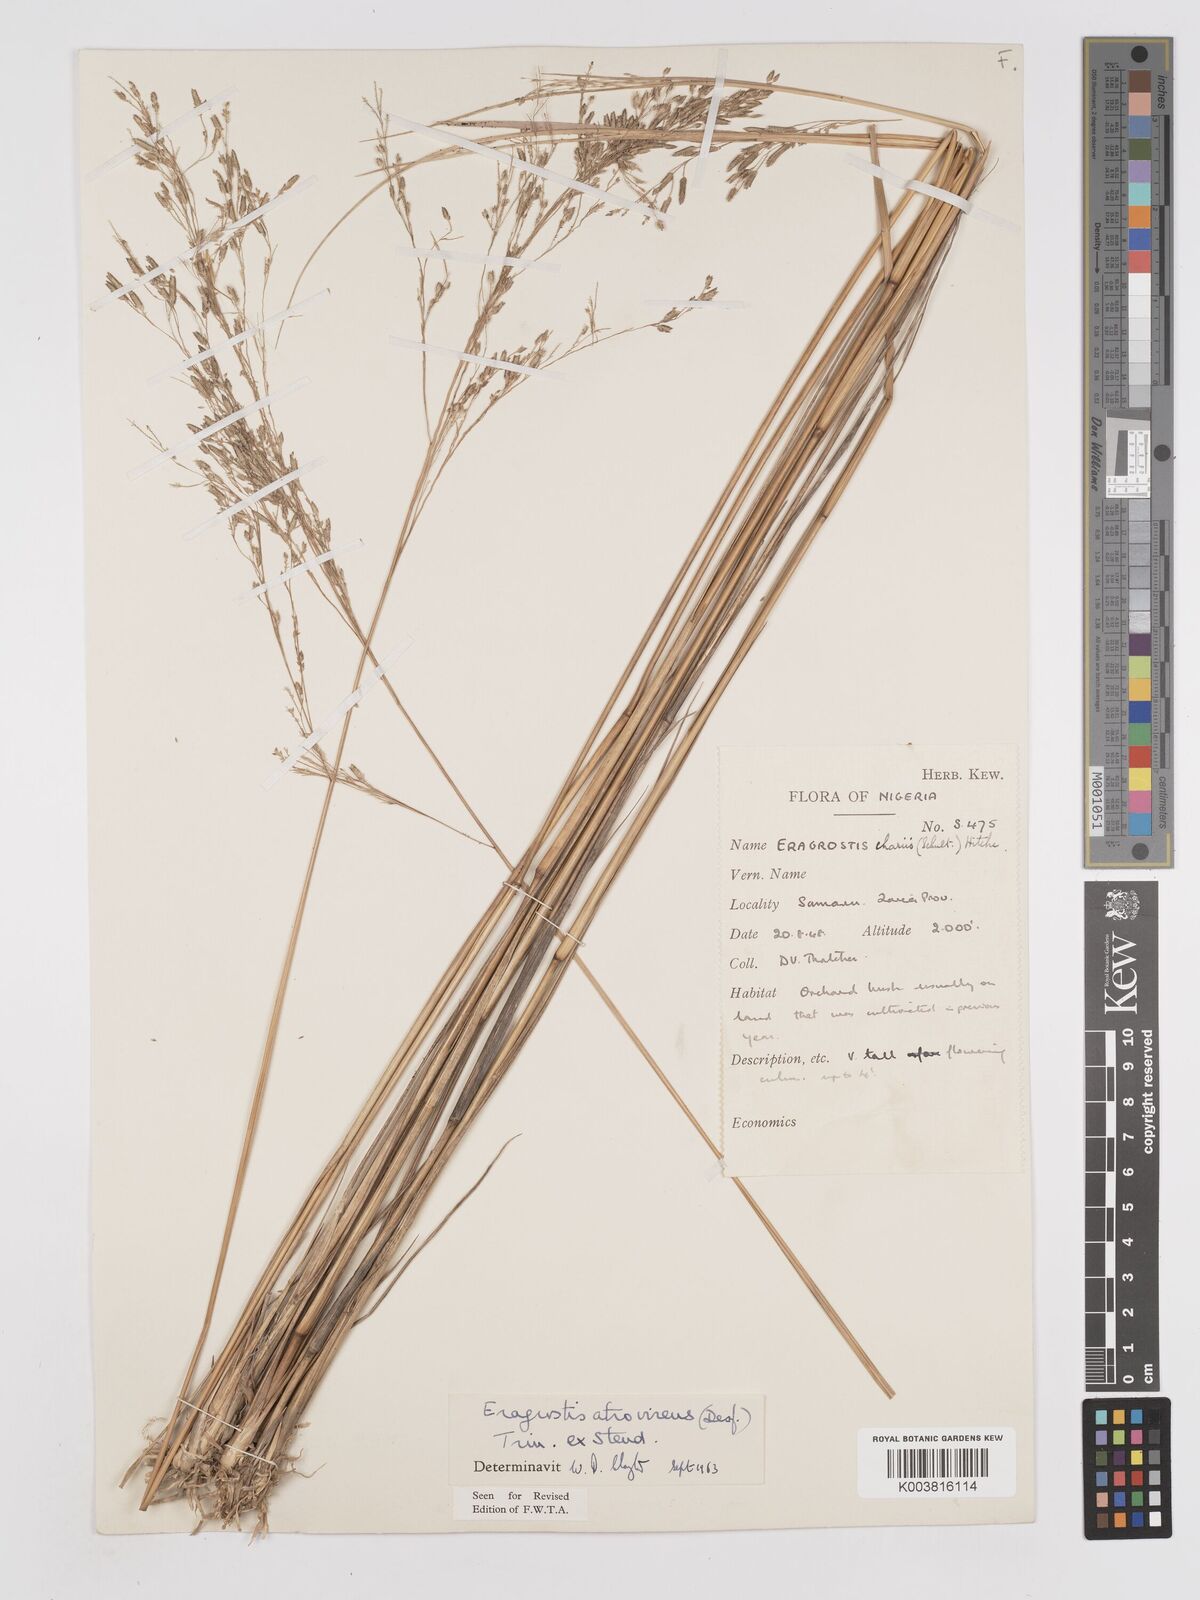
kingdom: Plantae
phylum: Tracheophyta
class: Liliopsida
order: Poales
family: Poaceae
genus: Eragrostis
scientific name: Eragrostis atrovirens
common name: Thalia lovegrass
